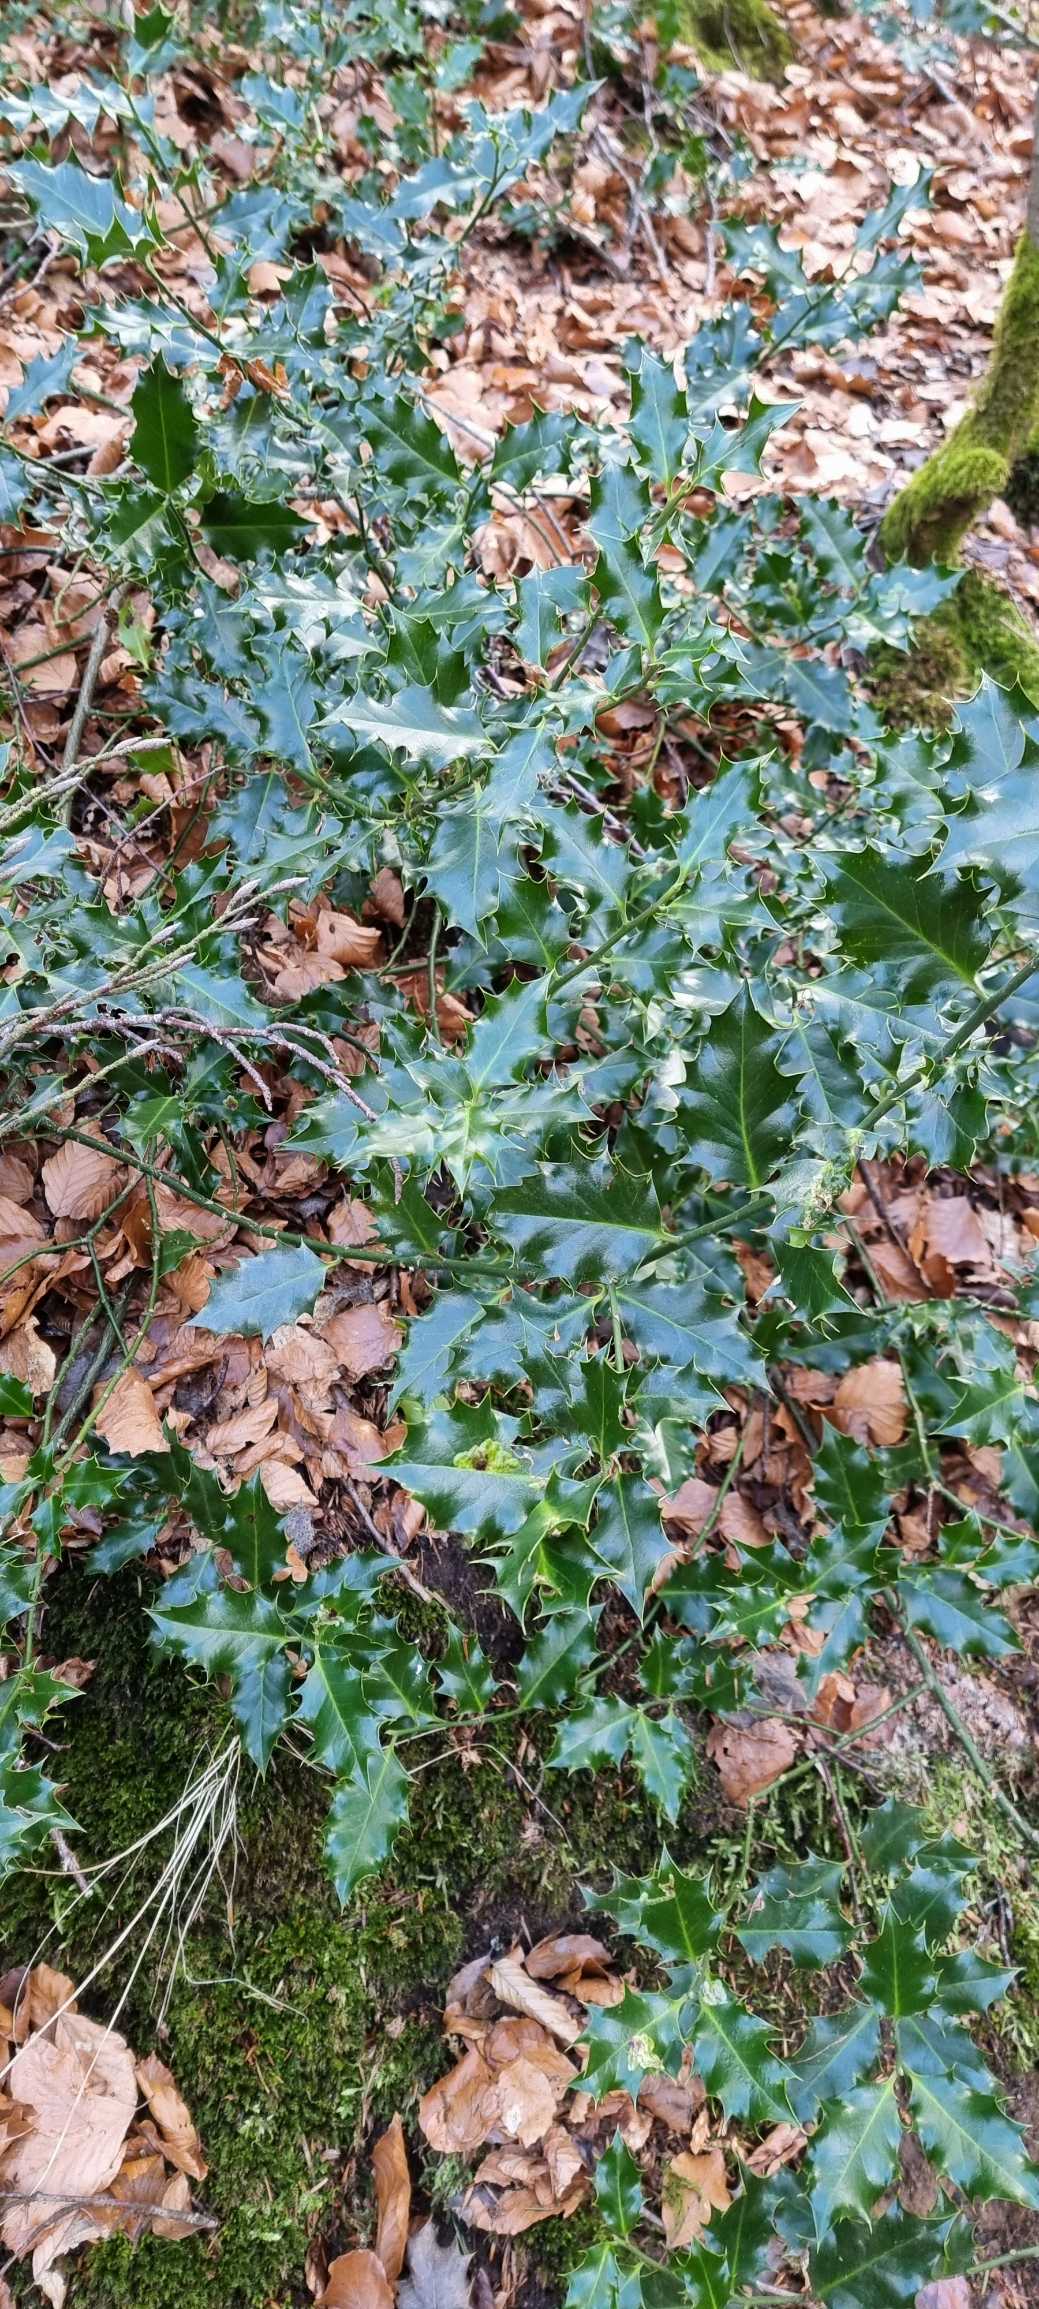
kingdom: Plantae
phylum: Tracheophyta
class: Magnoliopsida
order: Aquifoliales
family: Aquifoliaceae
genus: Ilex
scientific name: Ilex aquifolium
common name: Kristtorn
